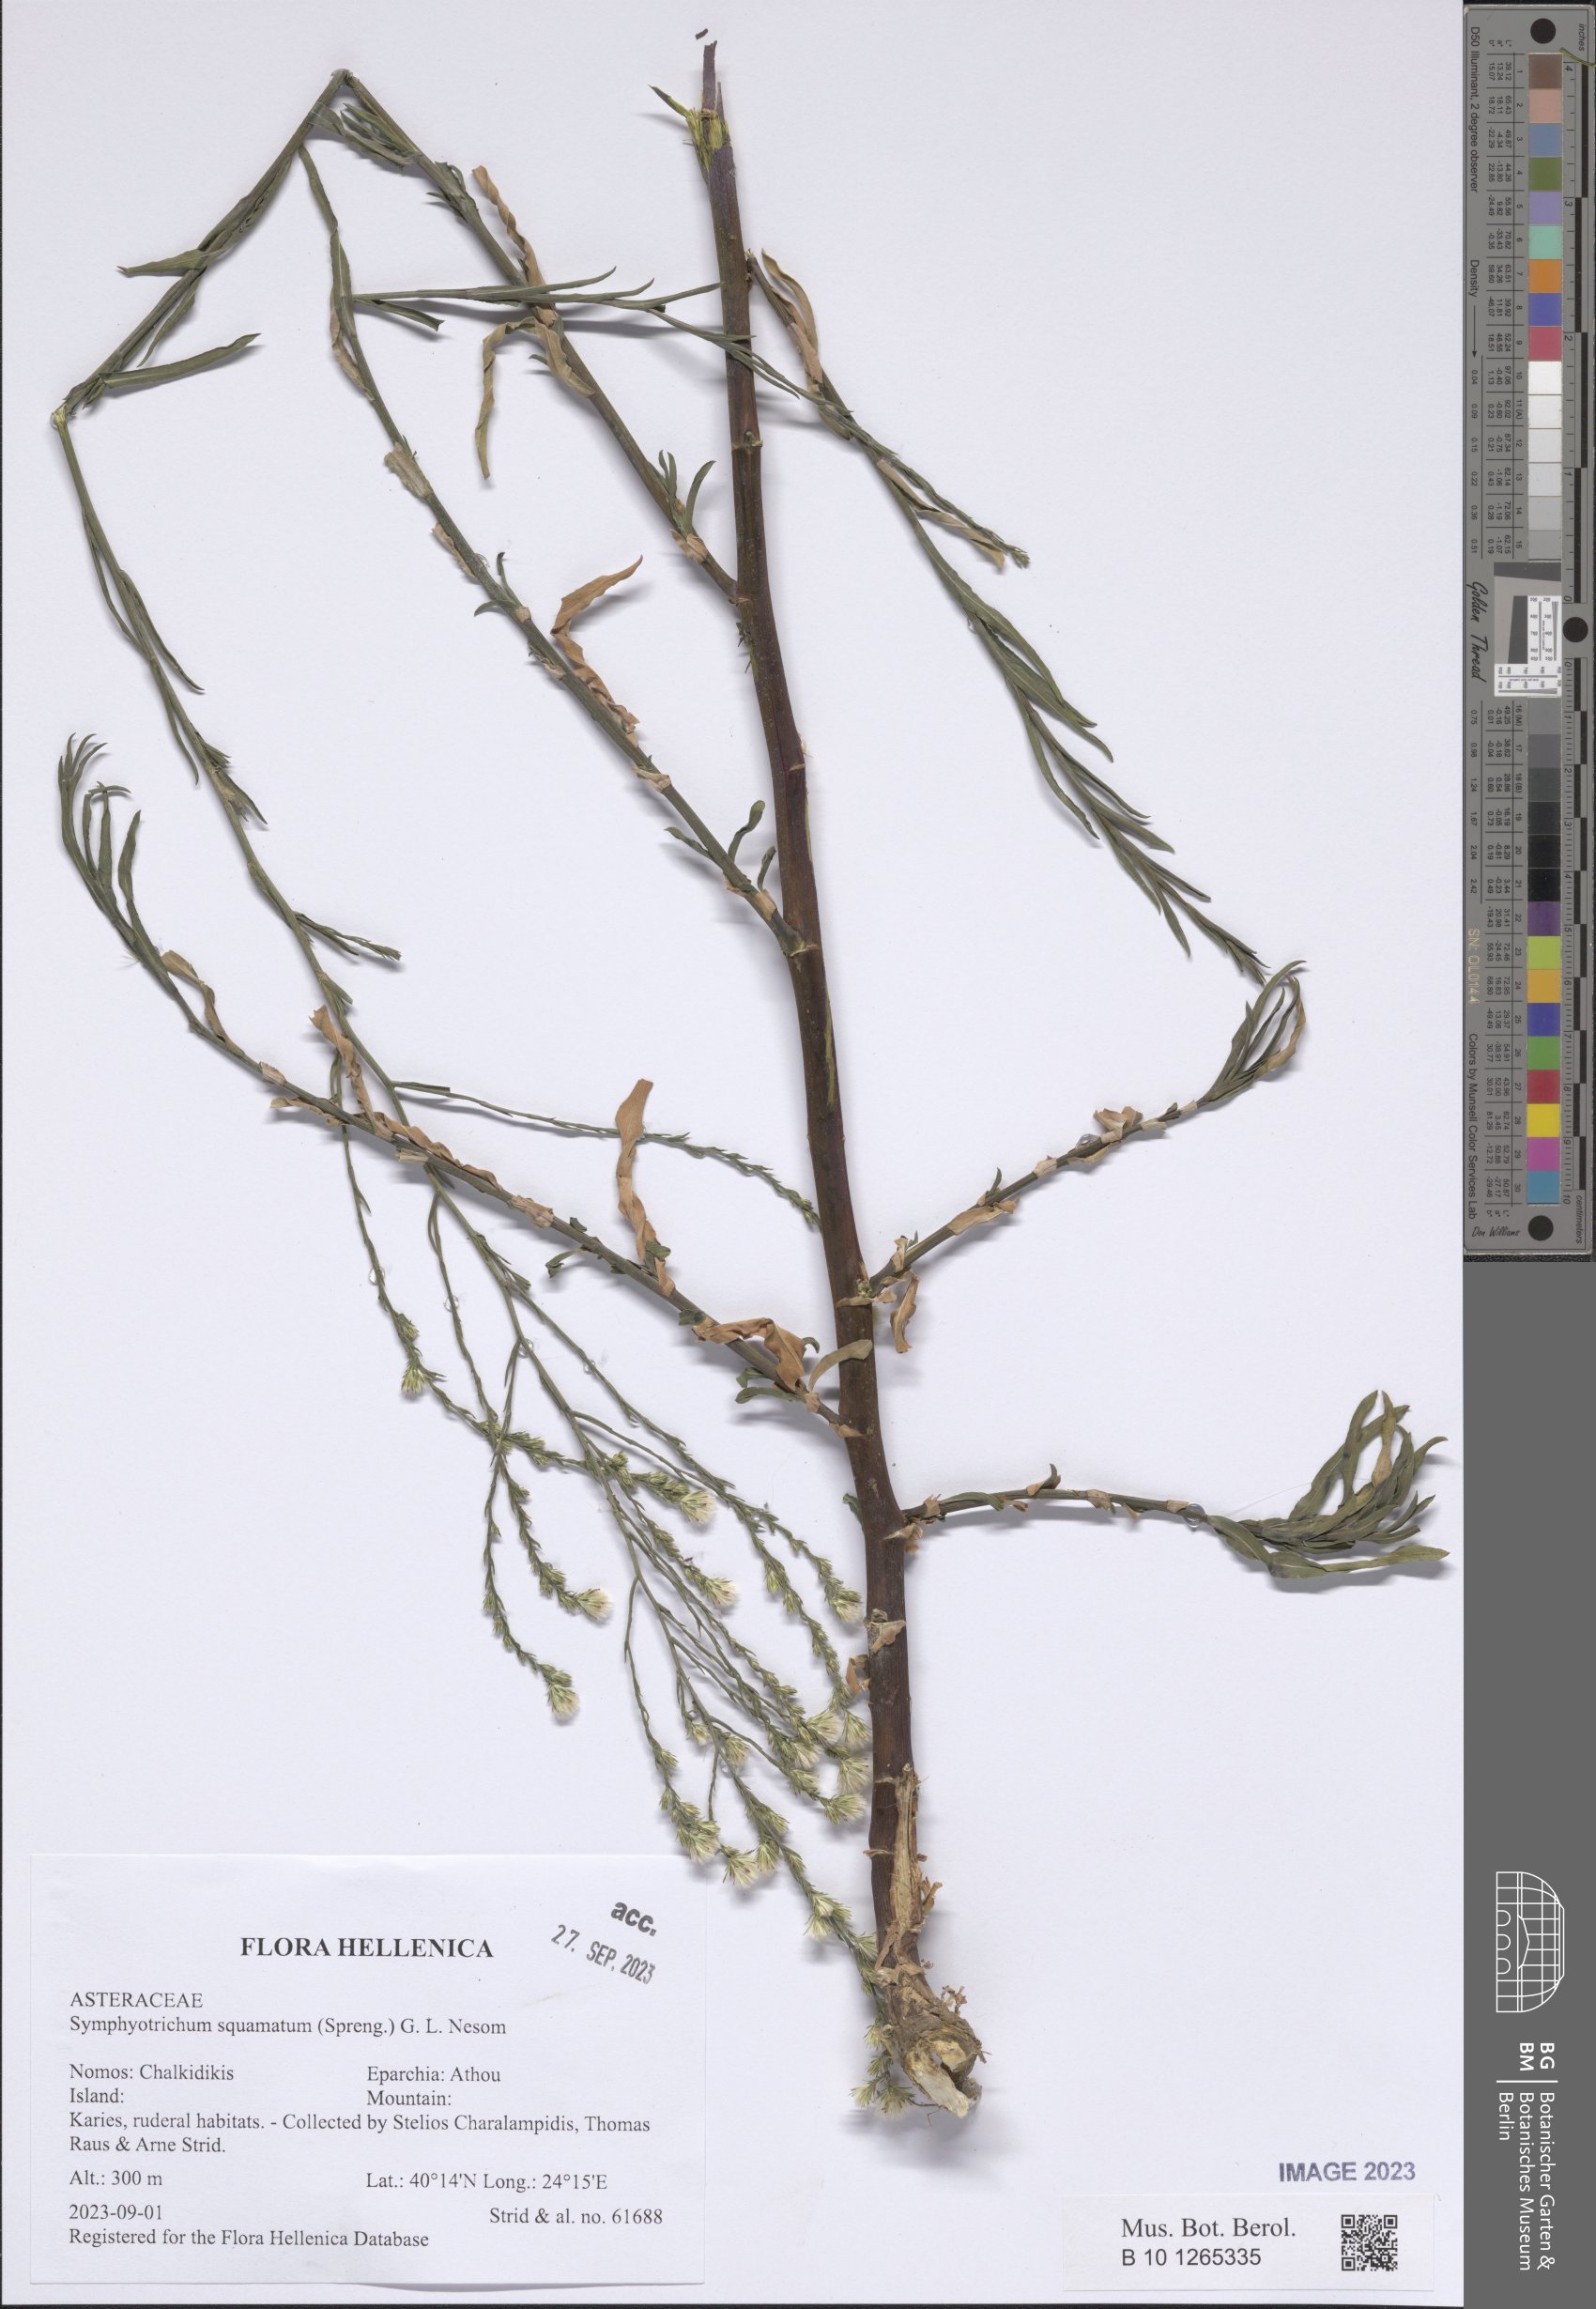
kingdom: Plantae
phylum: Tracheophyta
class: Magnoliopsida
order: Asterales
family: Asteraceae
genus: Symphyotrichum
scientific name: Symphyotrichum squamatum
